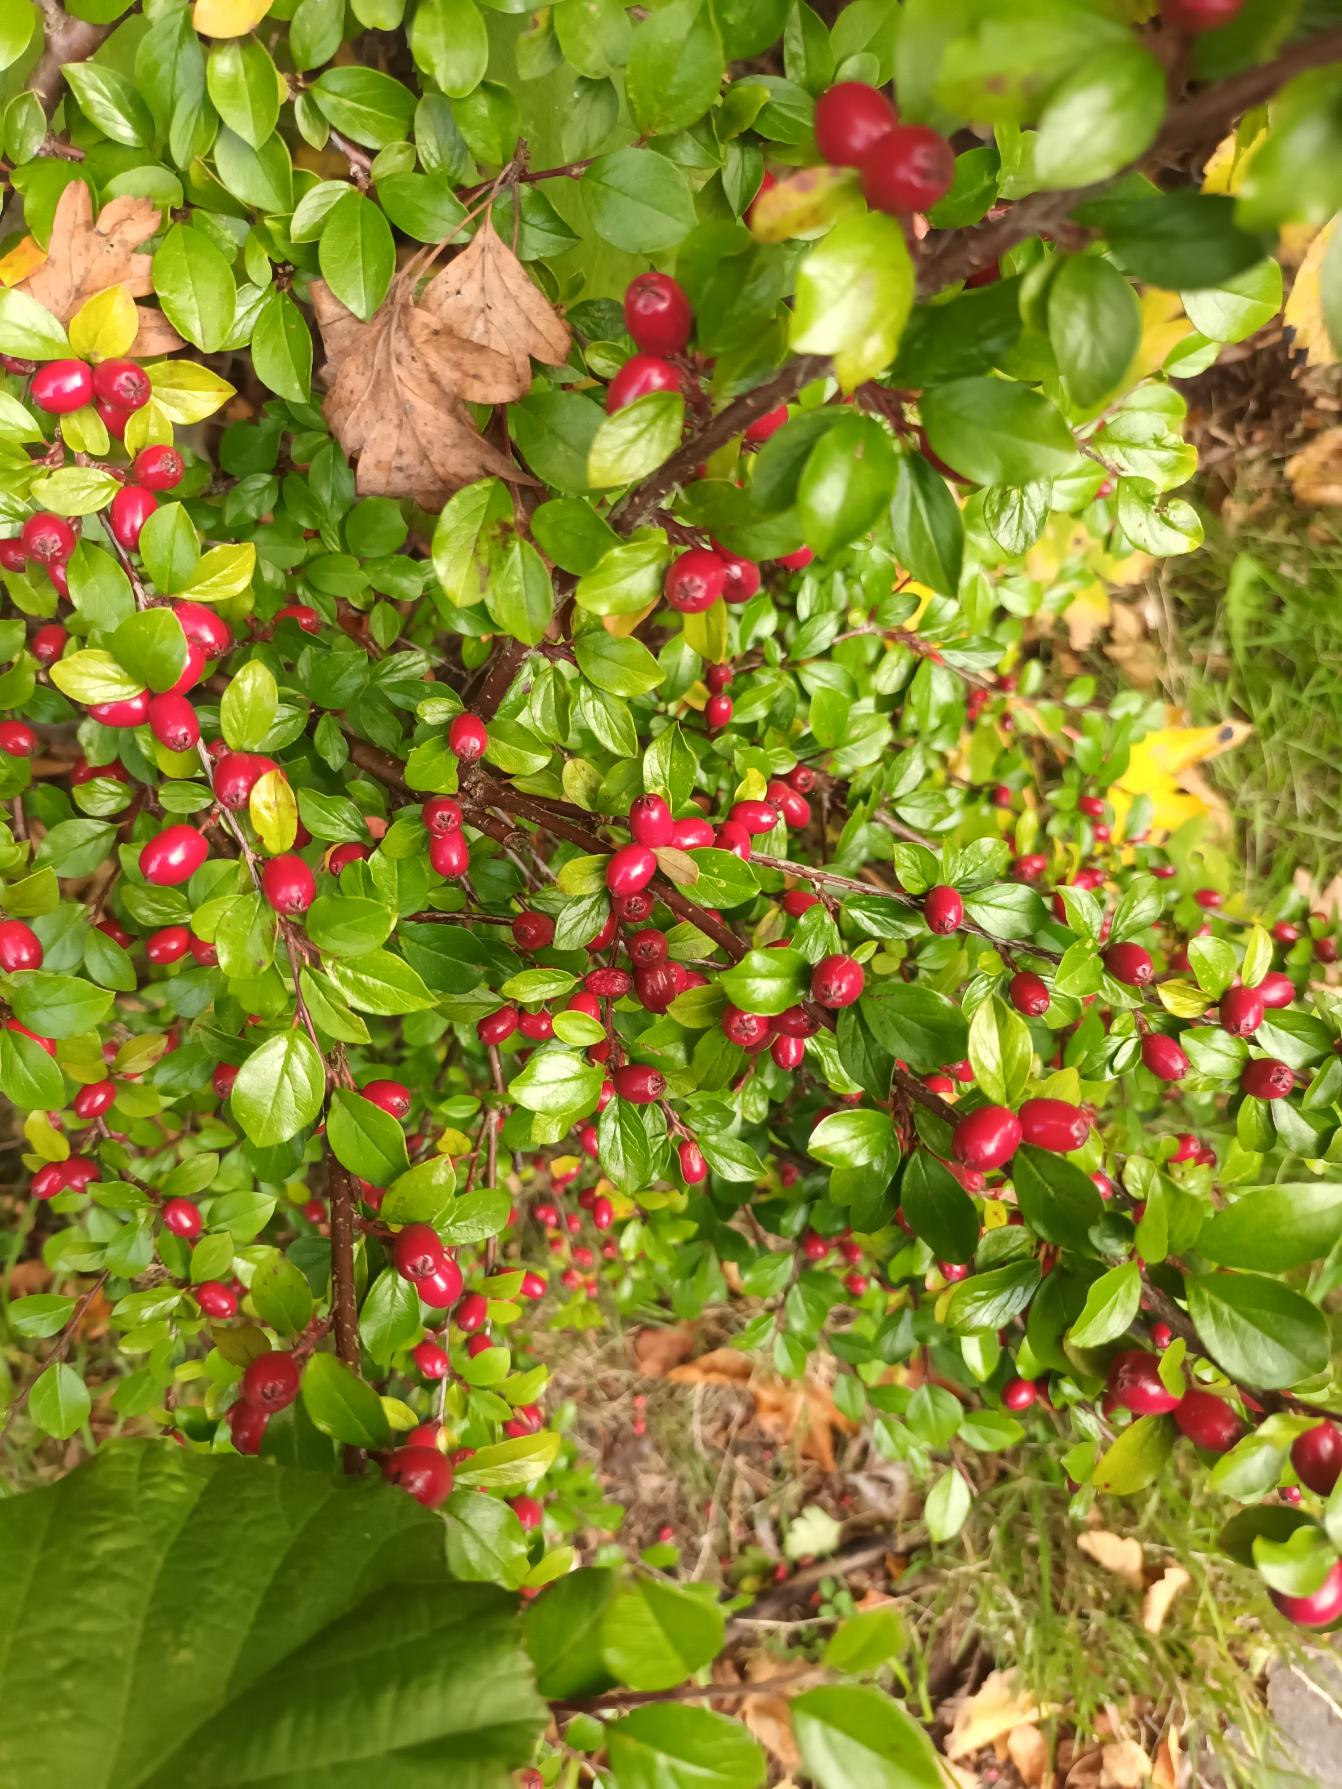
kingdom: Plantae
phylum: Tracheophyta
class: Magnoliopsida
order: Rosales
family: Rosaceae
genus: Cotoneaster
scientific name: Cotoneaster divaricatus
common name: Vifte-dværgmispel
